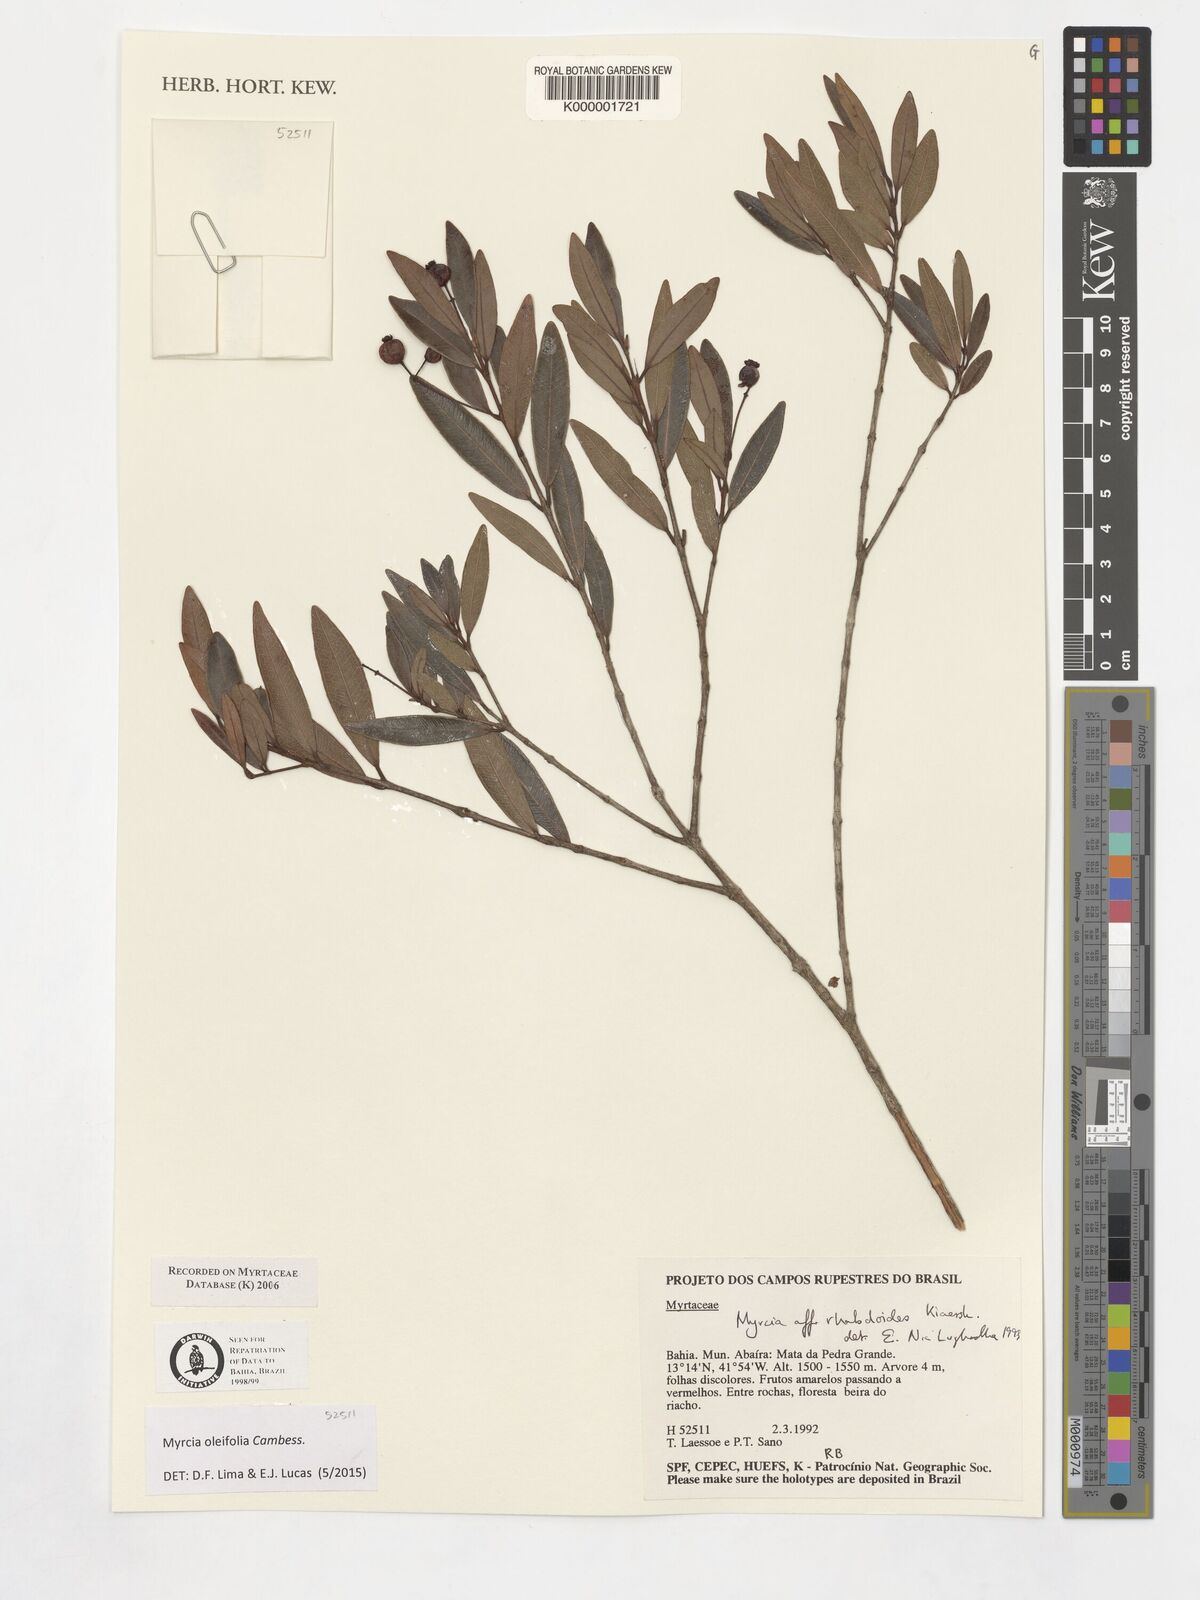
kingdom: Plantae
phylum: Tracheophyta
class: Magnoliopsida
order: Myrtales
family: Myrtaceae
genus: Myrcia
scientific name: Myrcia venulosa
